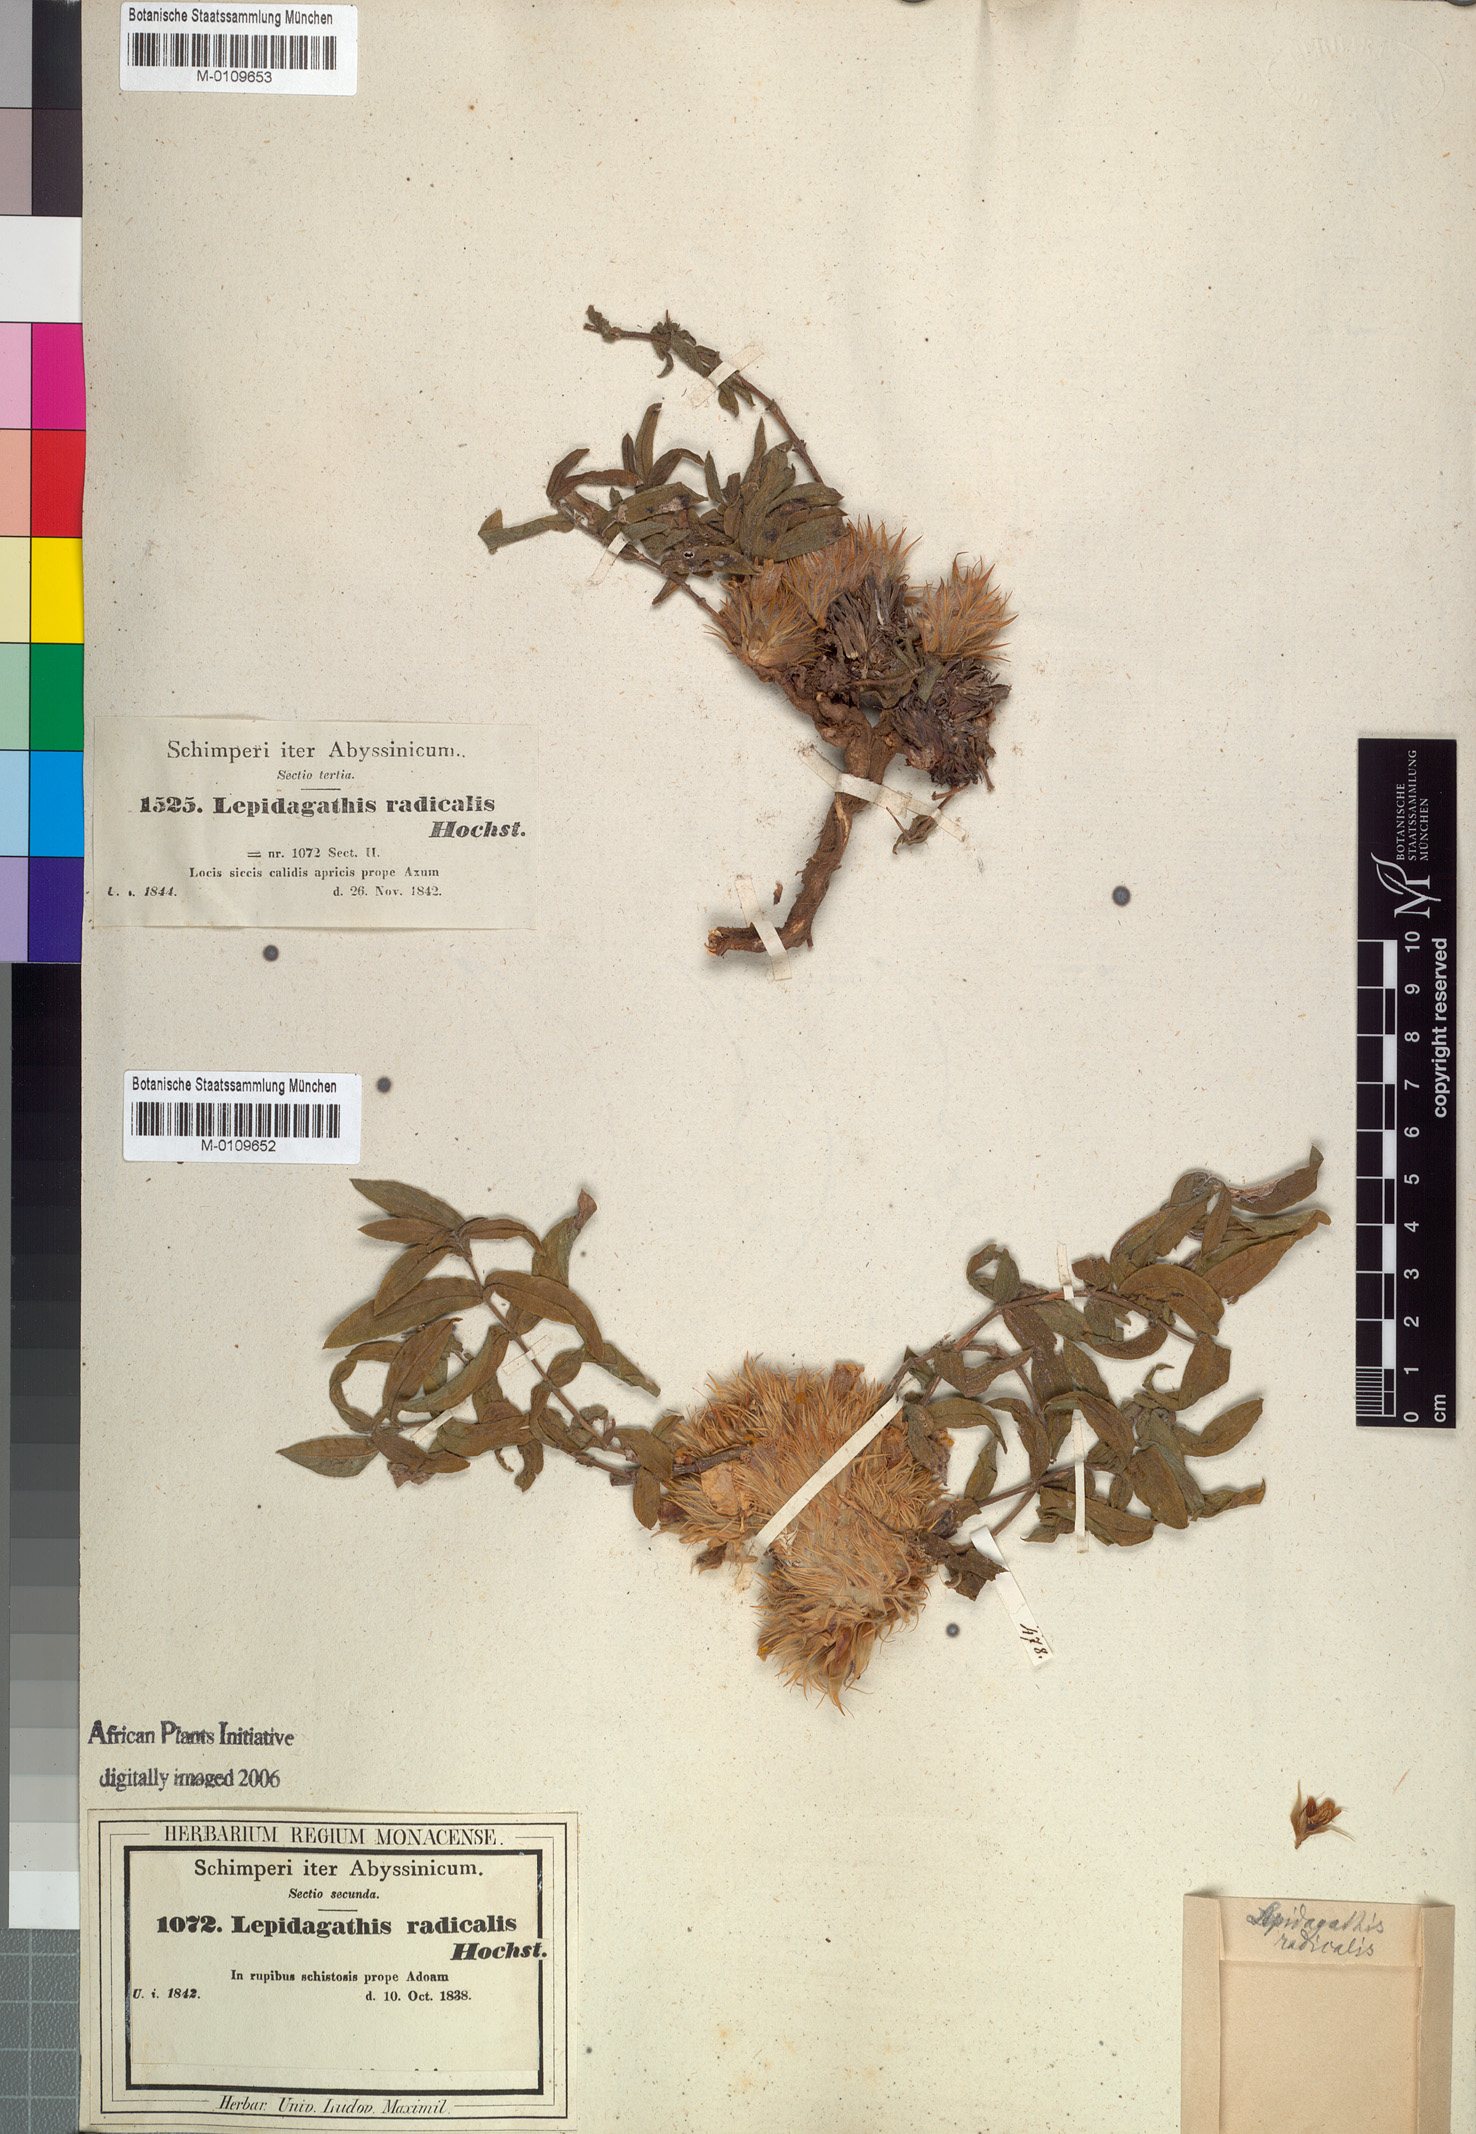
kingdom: Plantae
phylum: Tracheophyta
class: Magnoliopsida
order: Lamiales
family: Acanthaceae
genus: Lepidagathis
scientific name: Lepidagathis collina
